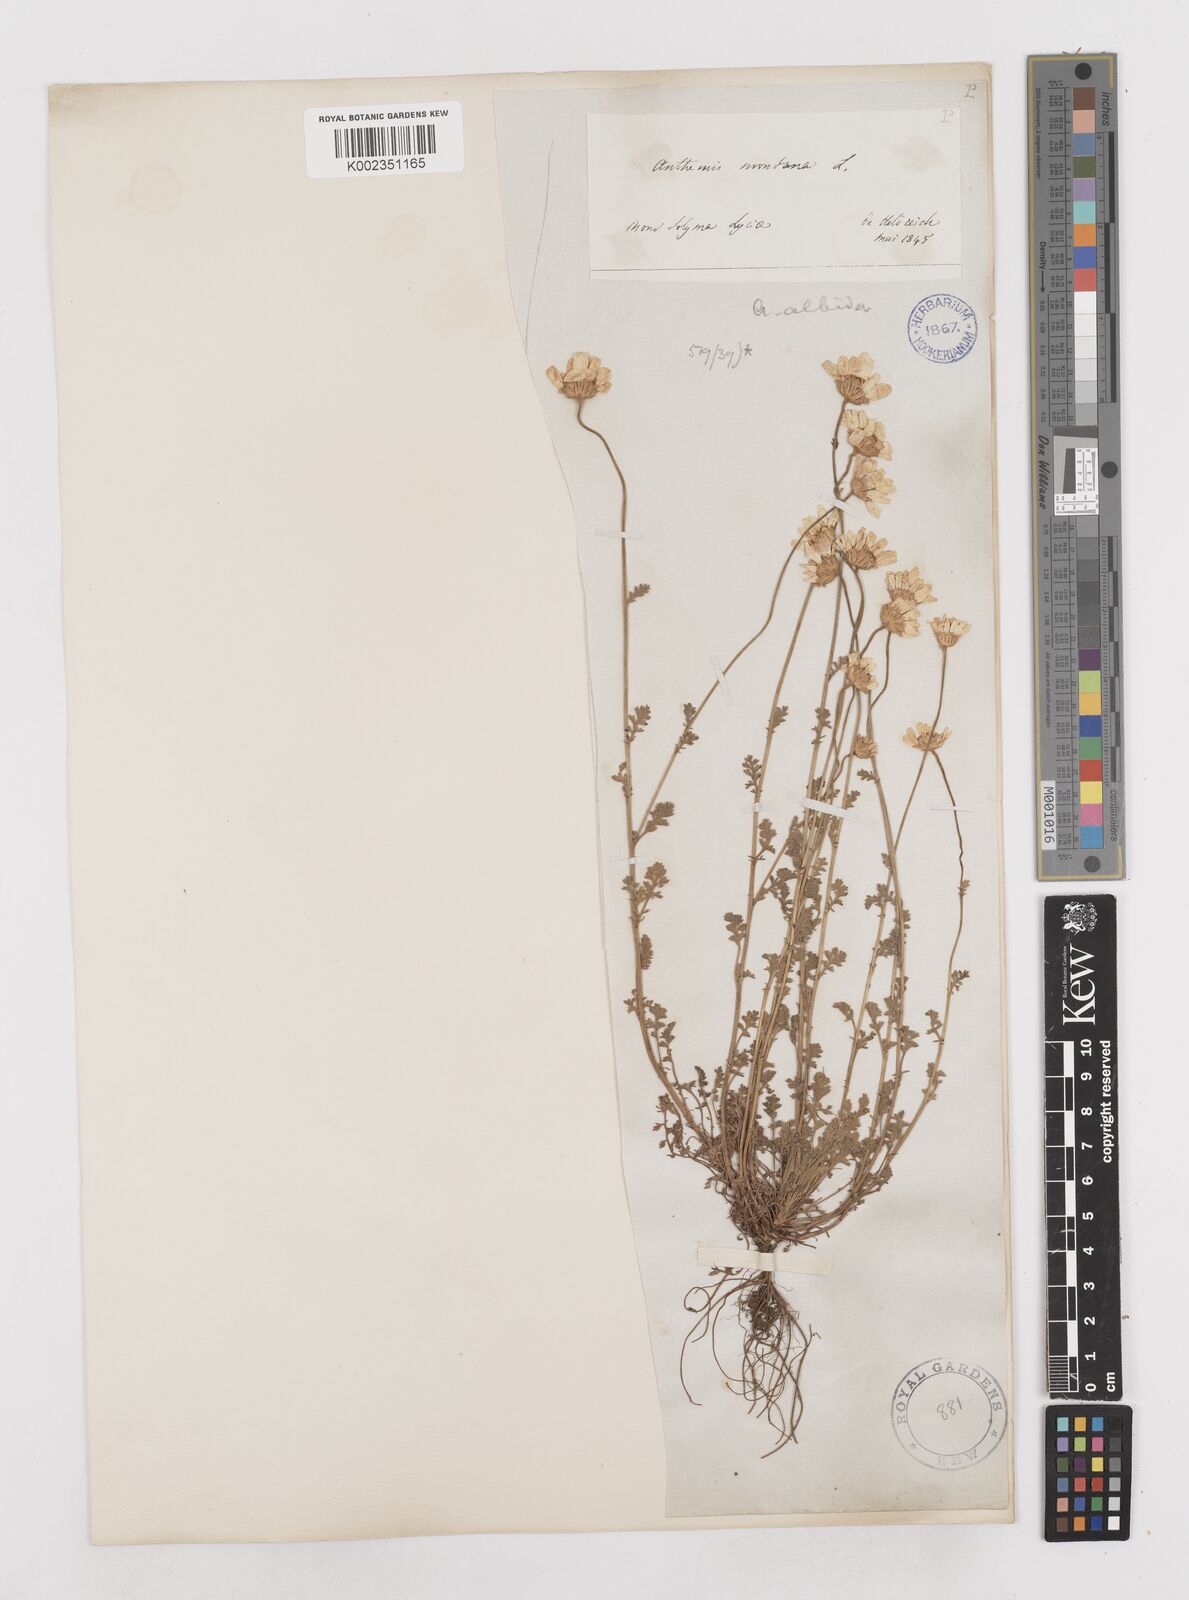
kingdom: Plantae
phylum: Tracheophyta
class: Magnoliopsida
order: Asterales
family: Asteraceae
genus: Anthemis
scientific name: Anthemis cretica
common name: Mountain dog-daisy
